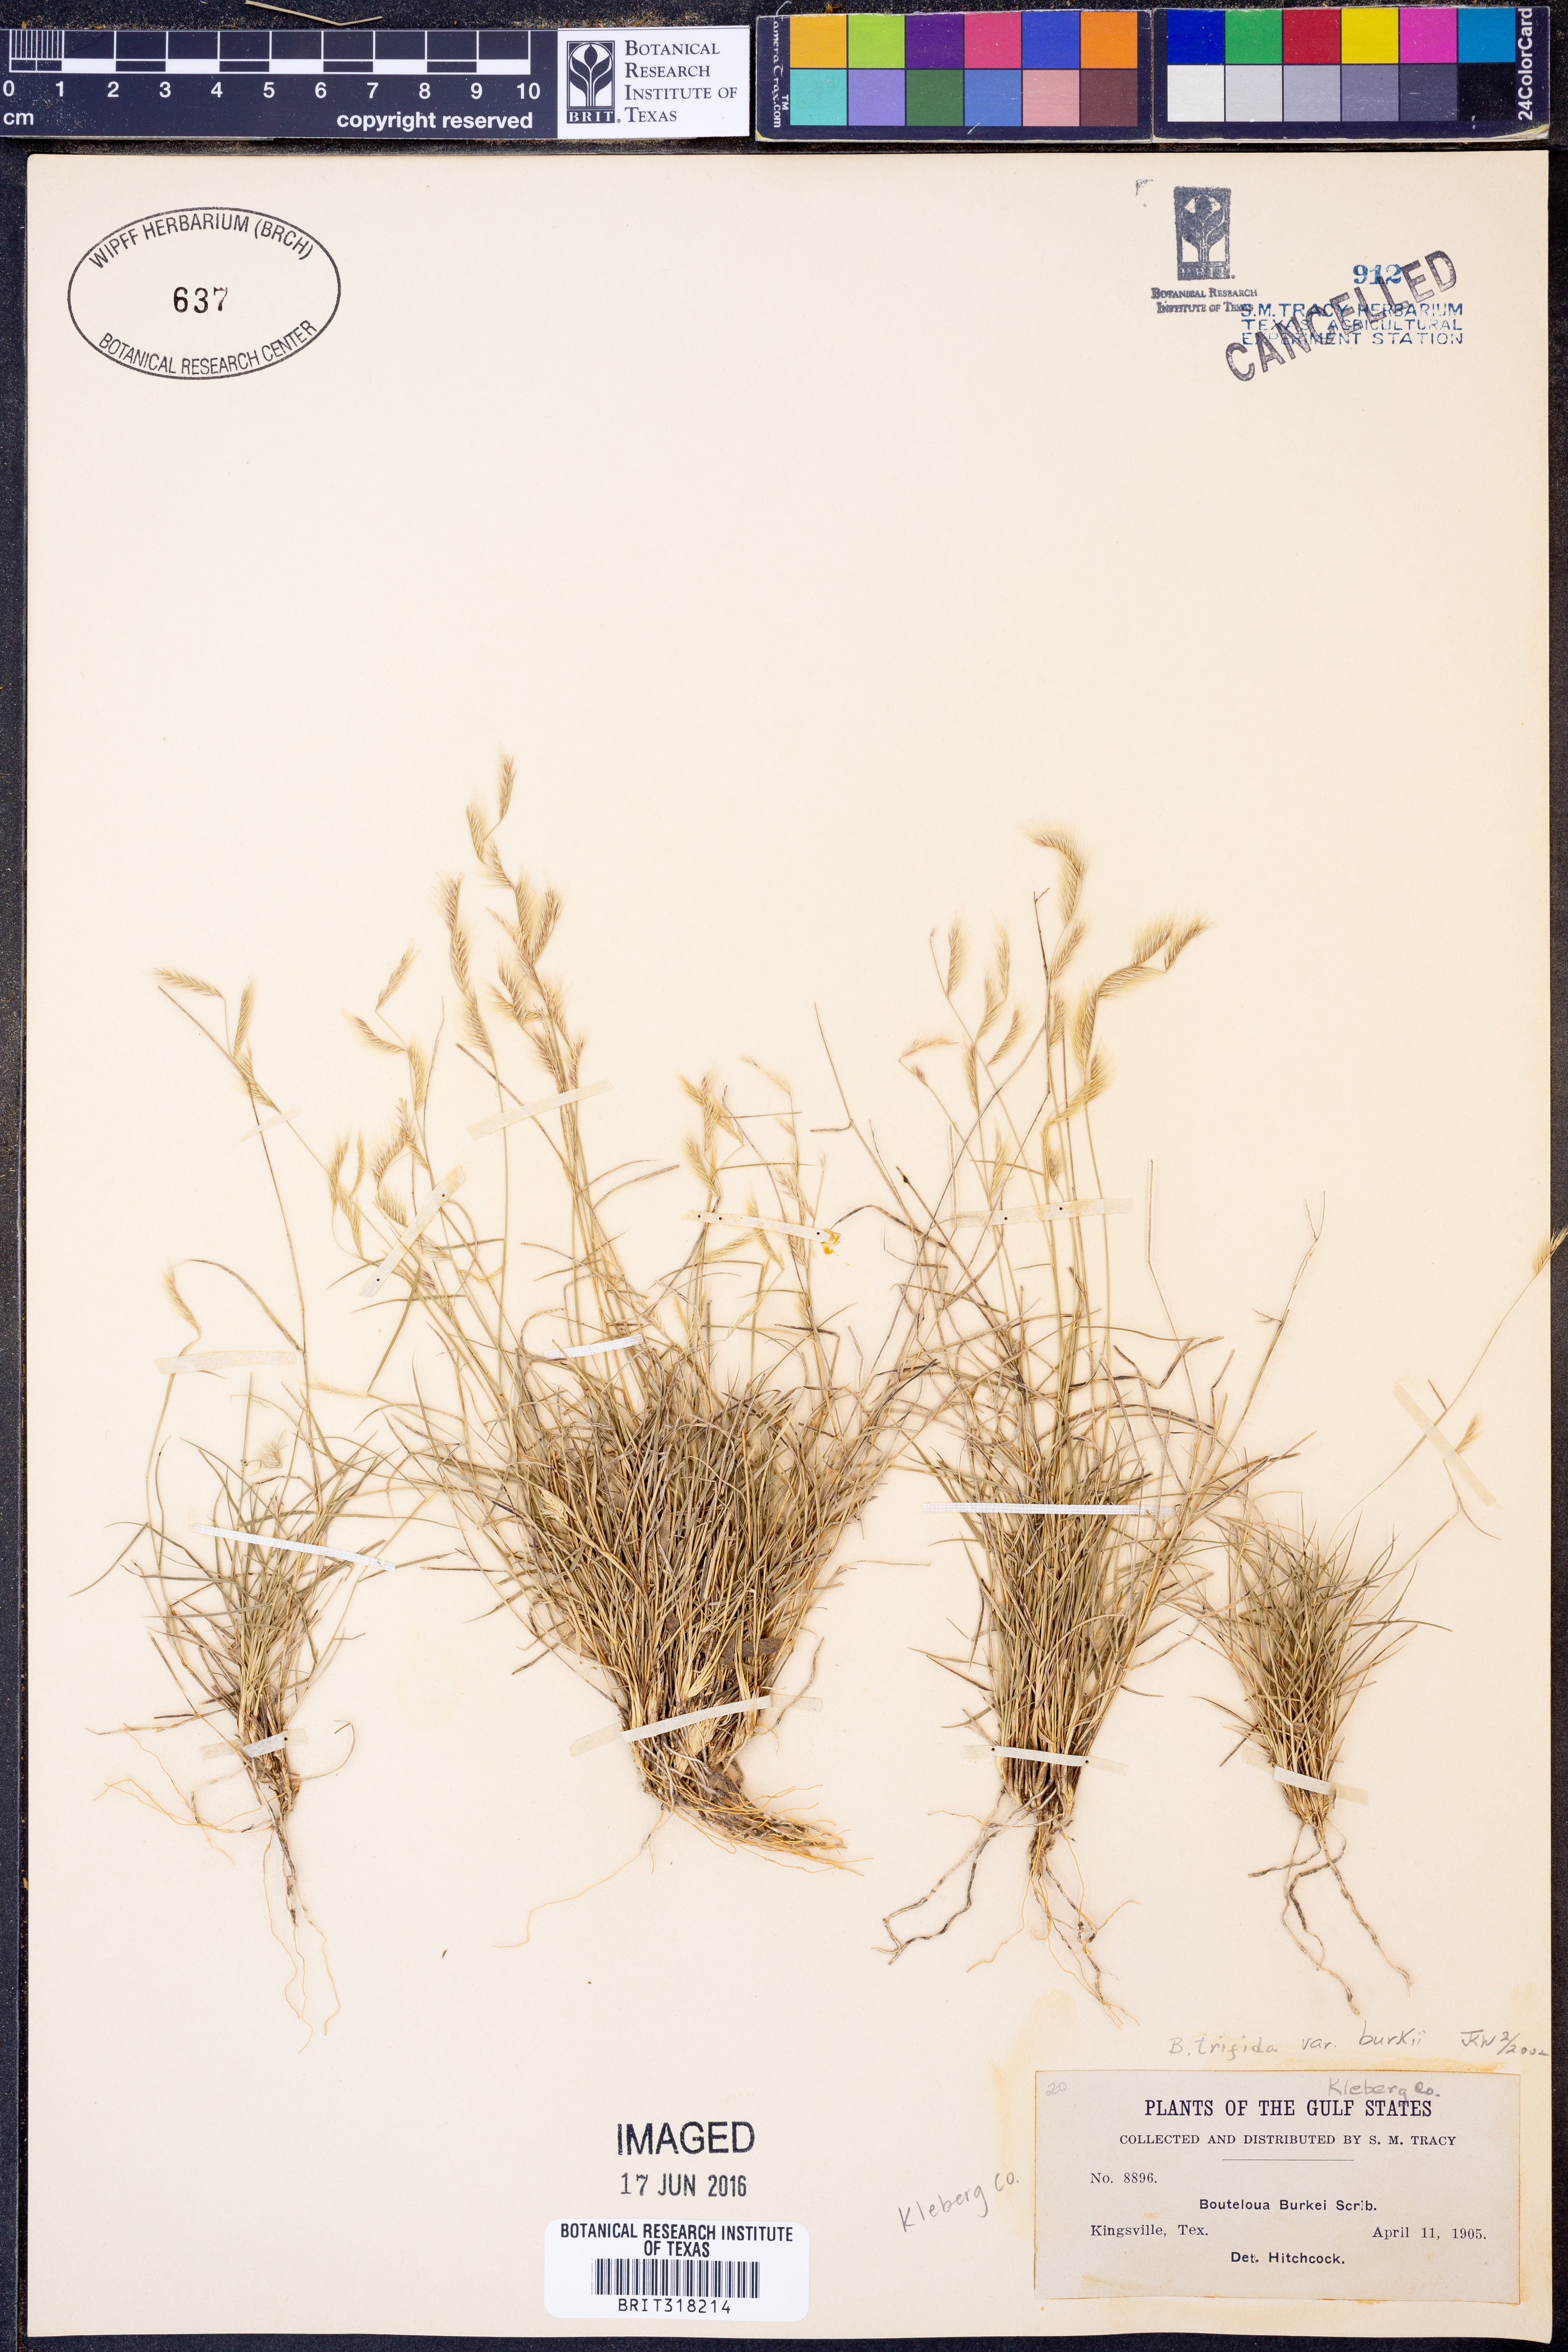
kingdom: Plantae
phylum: Tracheophyta
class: Liliopsida
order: Poales
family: Poaceae
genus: Bouteloua
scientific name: Bouteloua trifida
